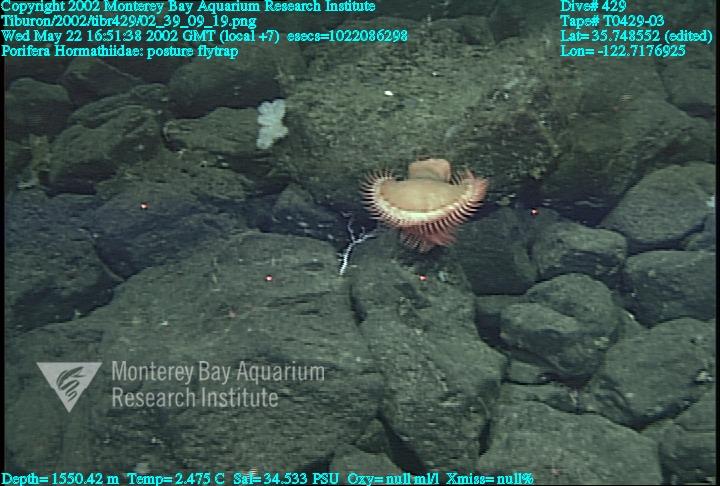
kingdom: Animalia
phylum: Porifera
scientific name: Porifera
